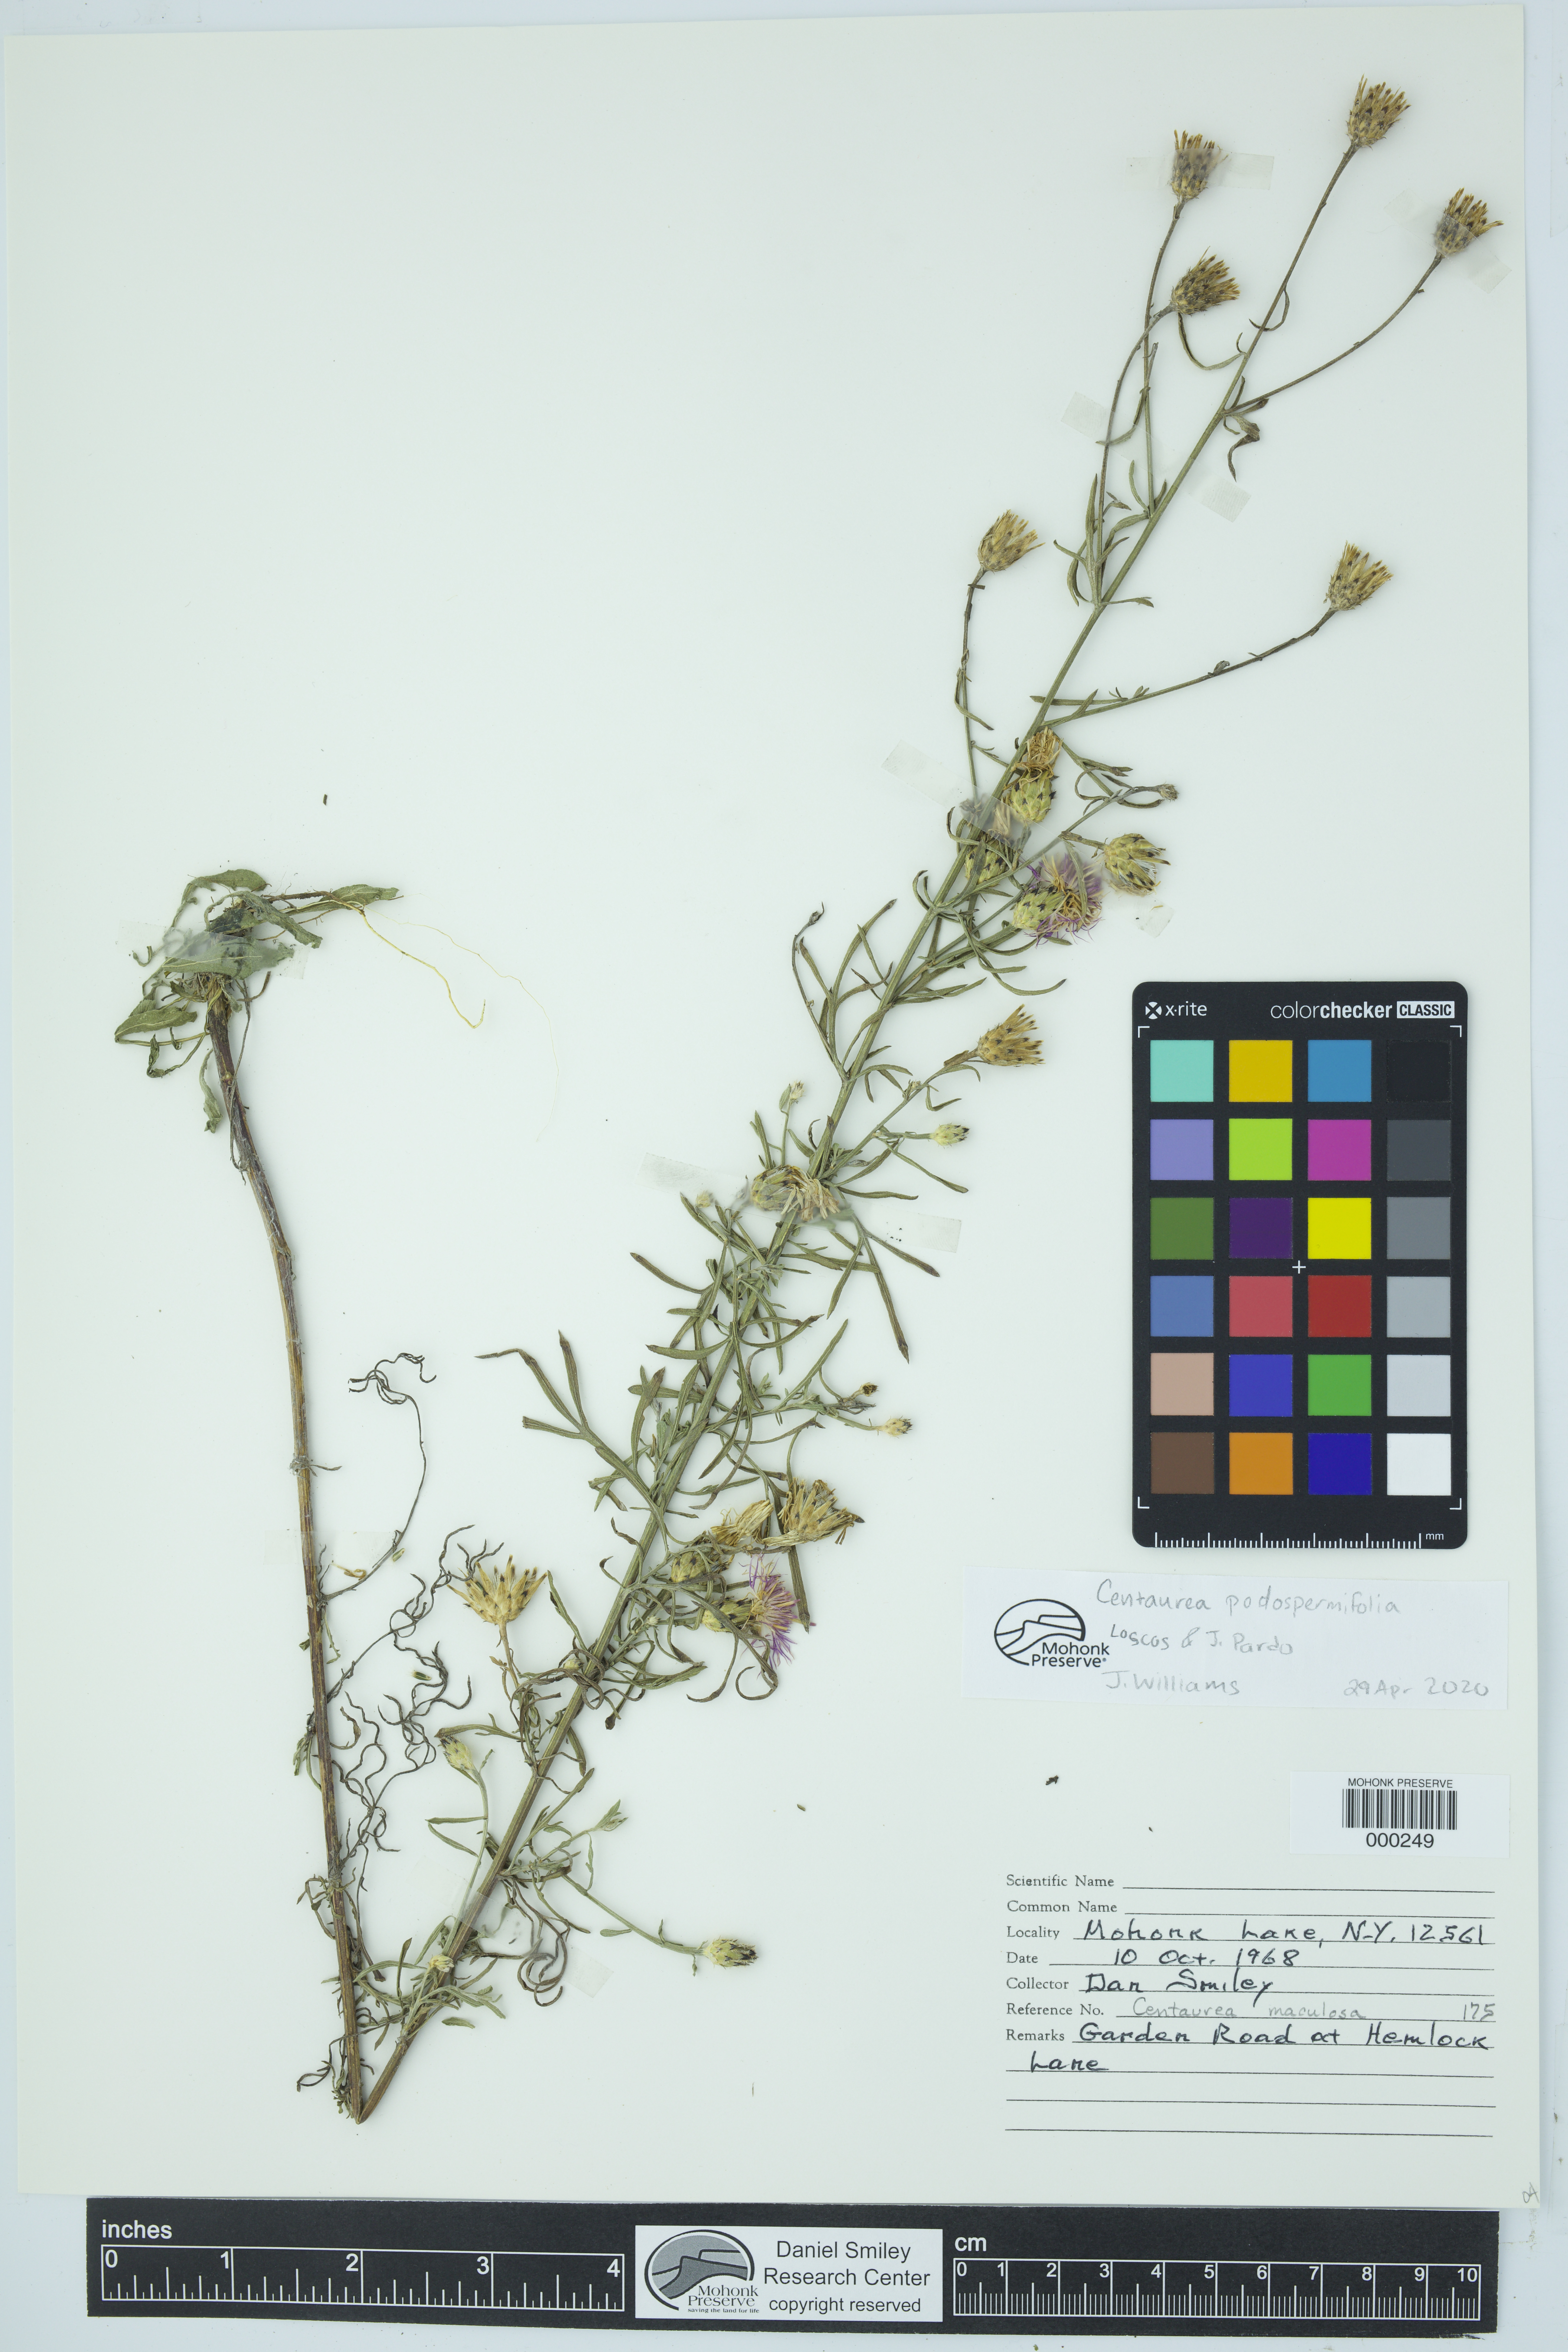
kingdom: Plantae
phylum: Tracheophyta
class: Magnoliopsida
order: Asterales
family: Asteraceae
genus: Centaurea
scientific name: Centaurea
